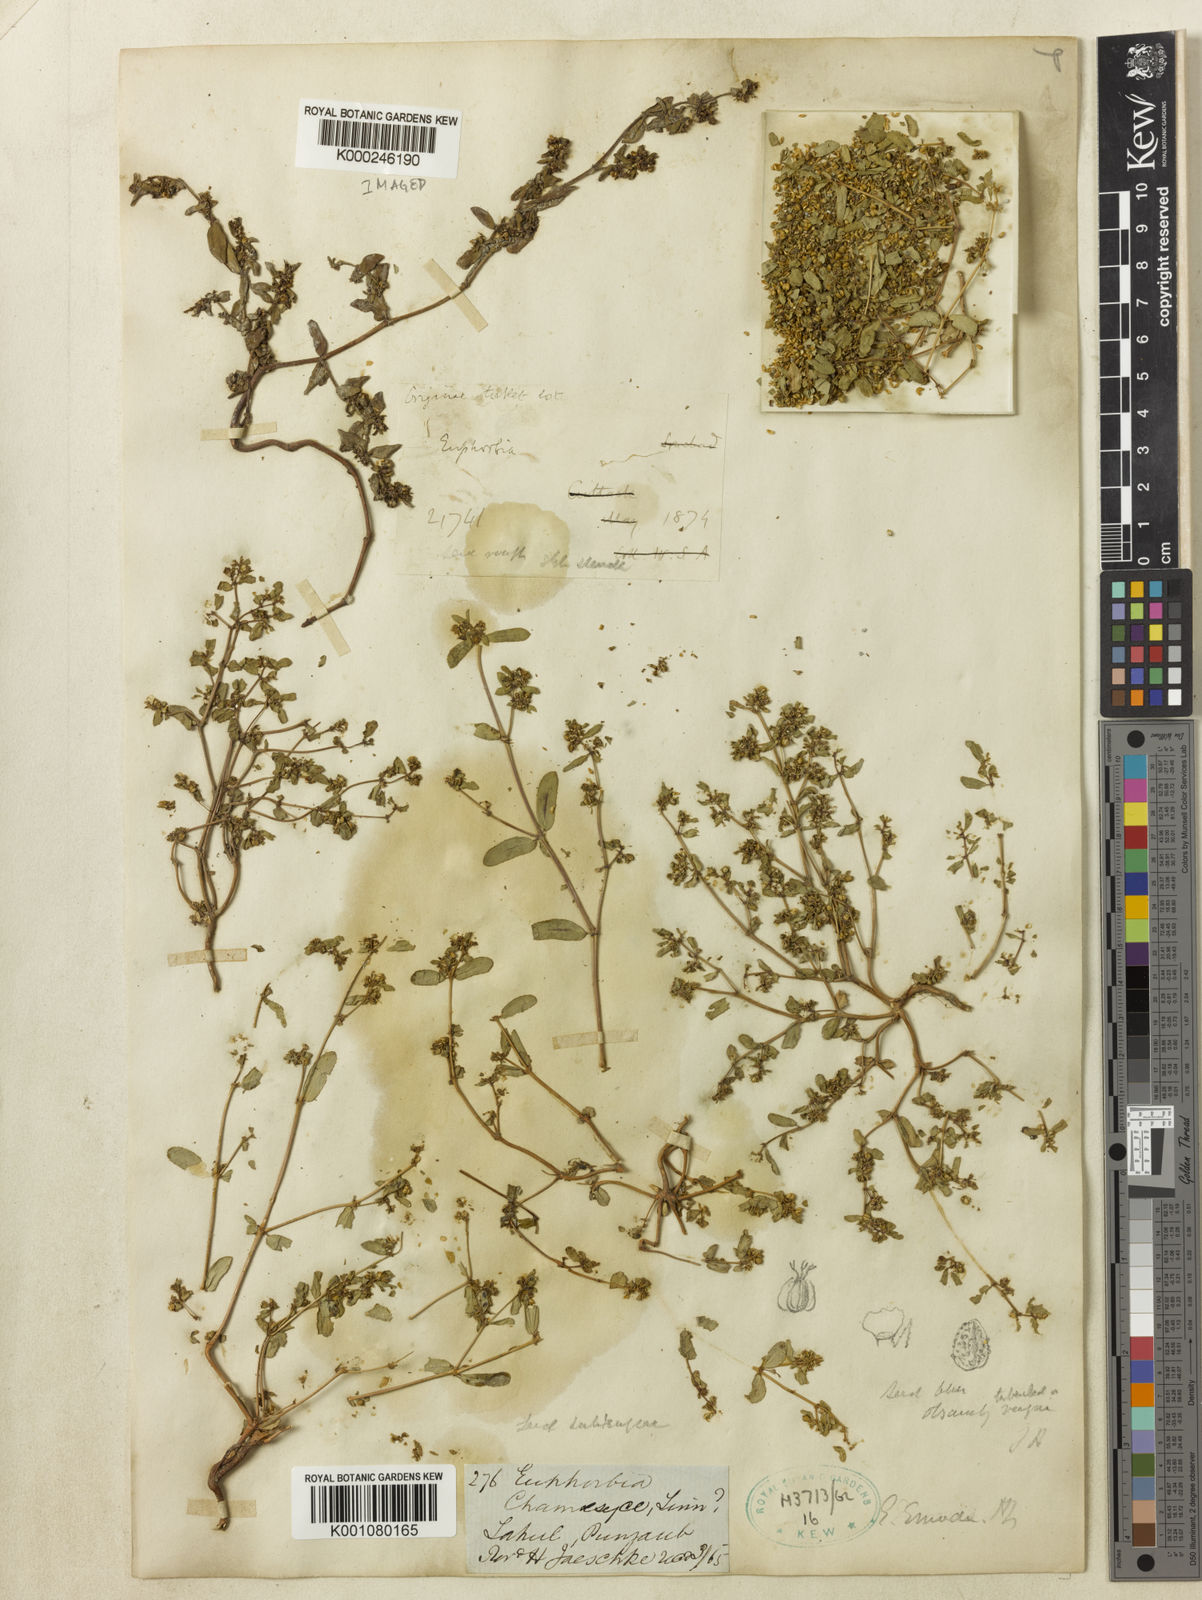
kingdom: Plantae
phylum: Tracheophyta
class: Magnoliopsida
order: Malpighiales
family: Euphorbiaceae
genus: Euphorbia
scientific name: Euphorbia hispida
